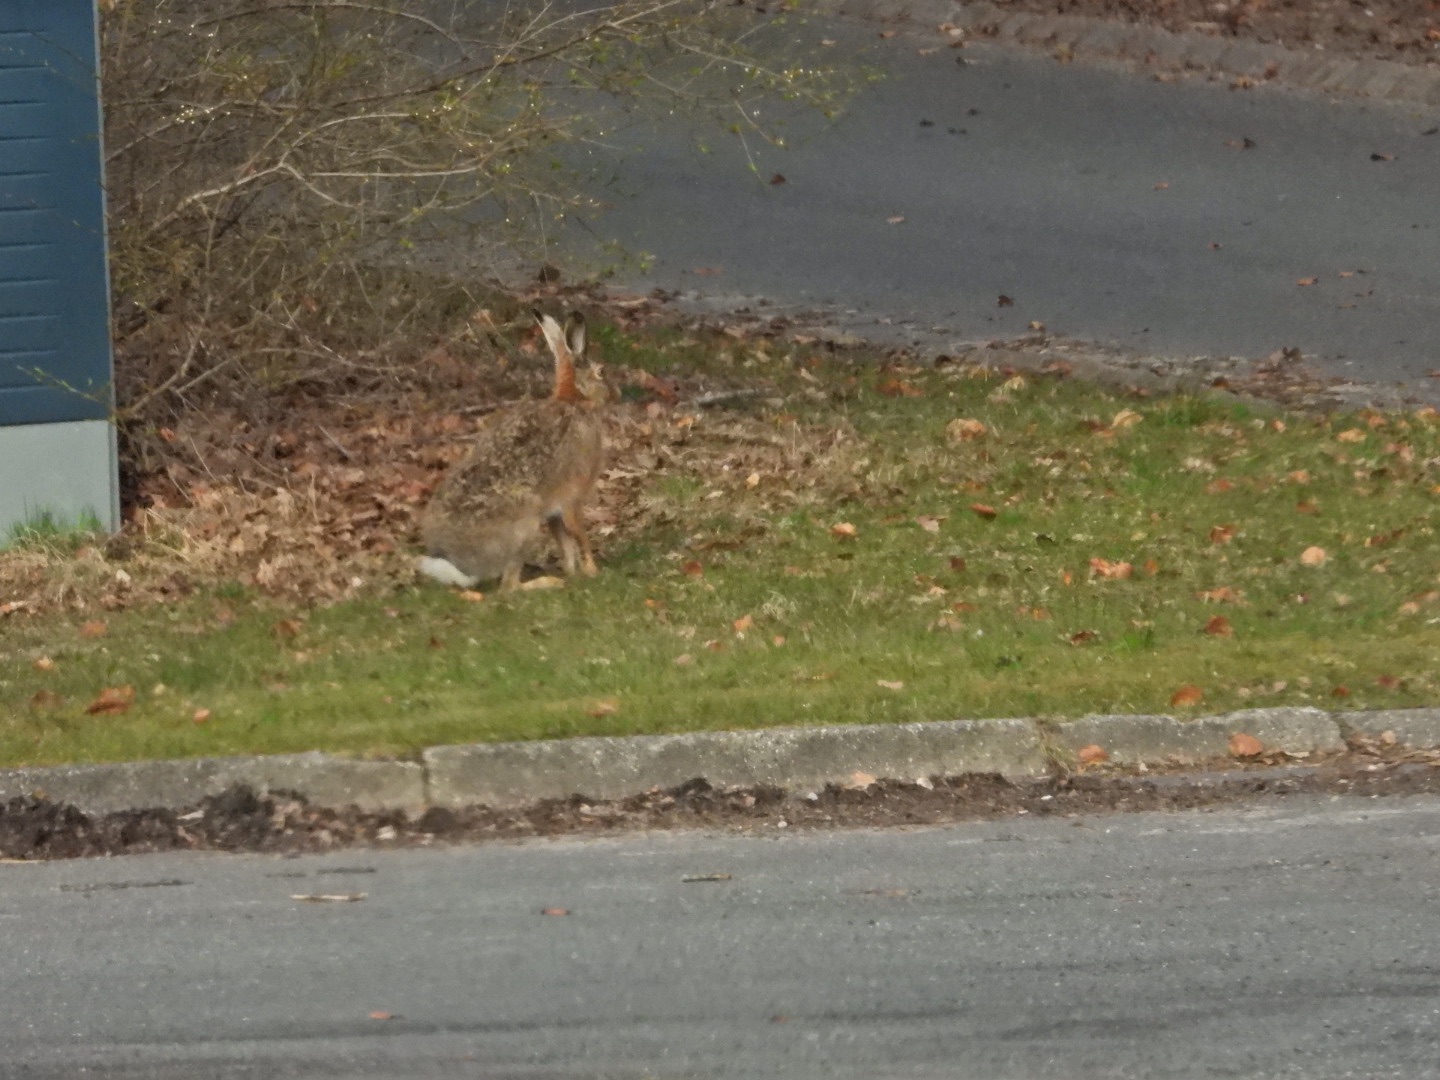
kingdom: Animalia
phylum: Chordata
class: Mammalia
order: Lagomorpha
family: Leporidae
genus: Lepus
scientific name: Lepus europaeus
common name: Hare
